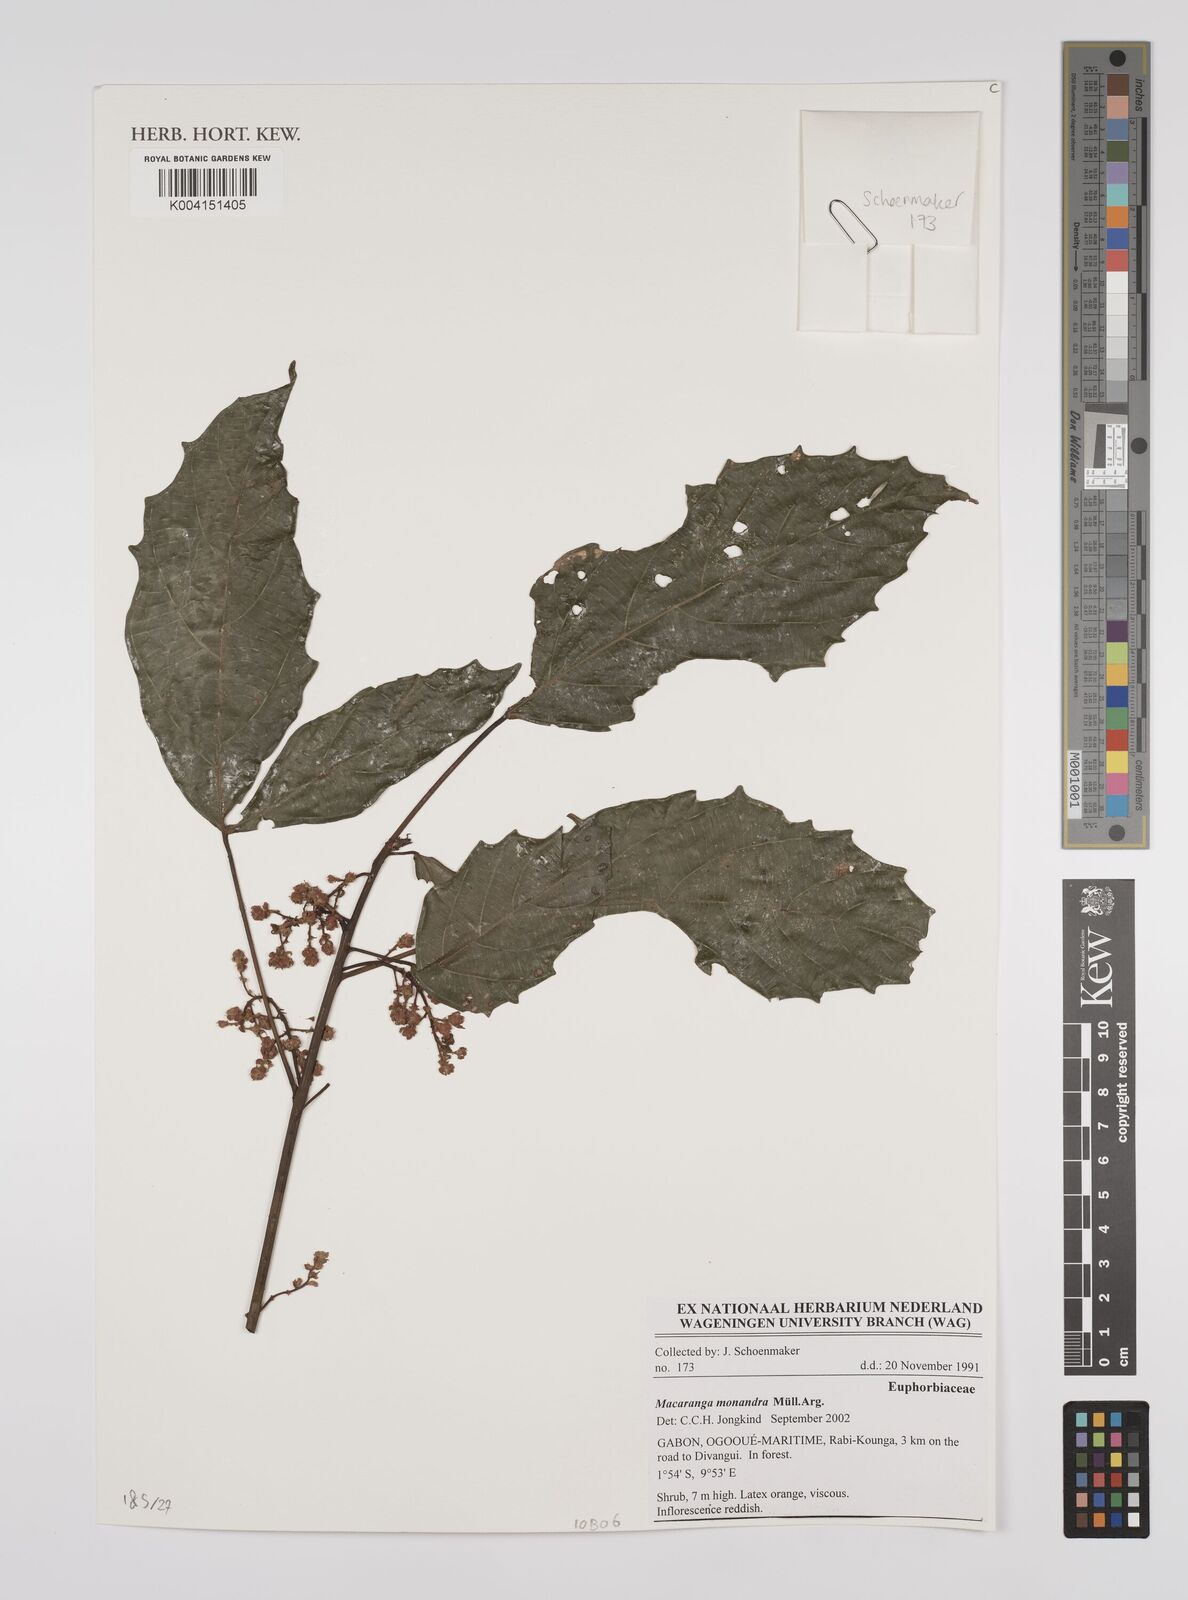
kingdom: Plantae
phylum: Tracheophyta
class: Magnoliopsida
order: Malpighiales
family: Euphorbiaceae
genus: Macaranga
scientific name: Macaranga monandra
